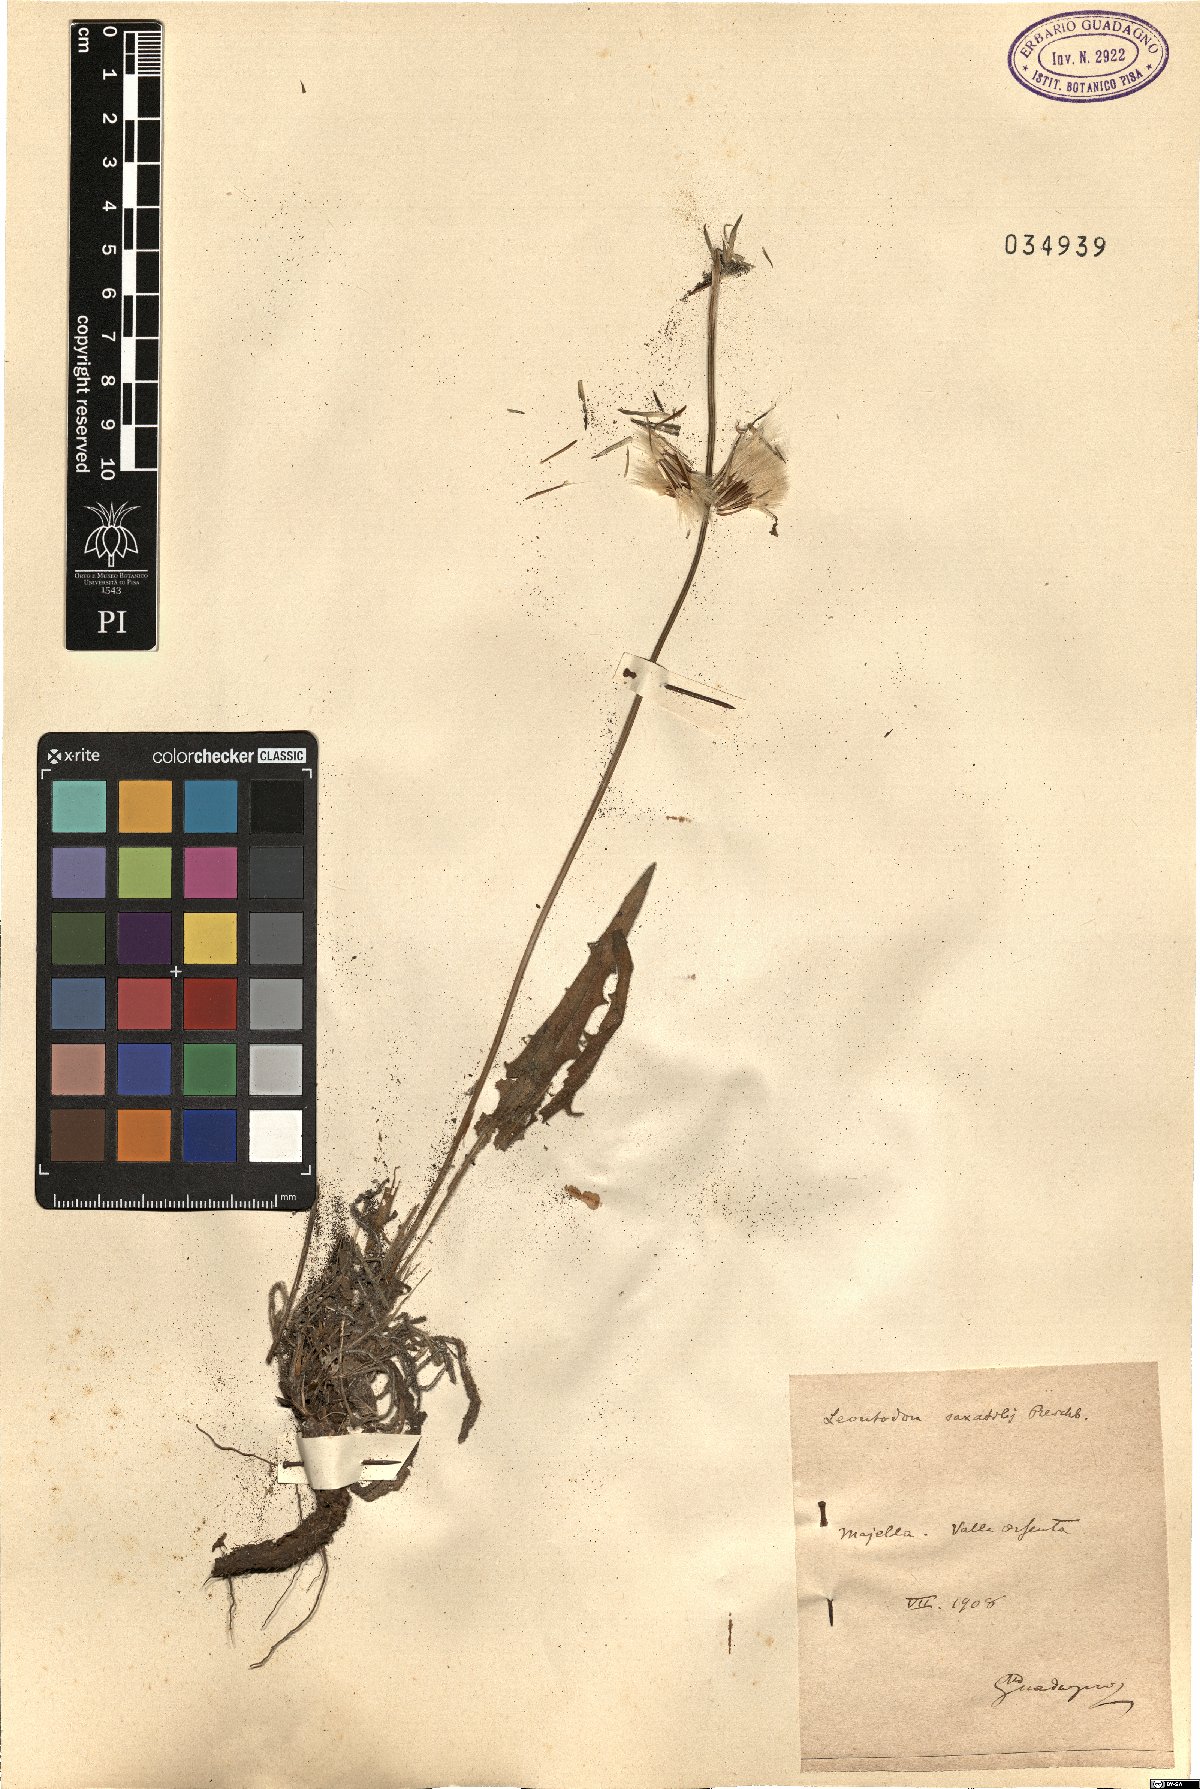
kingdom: Plantae
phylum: Tracheophyta
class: Magnoliopsida
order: Asterales
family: Asteraceae
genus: Thrincia
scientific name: Thrincia saxatilis
